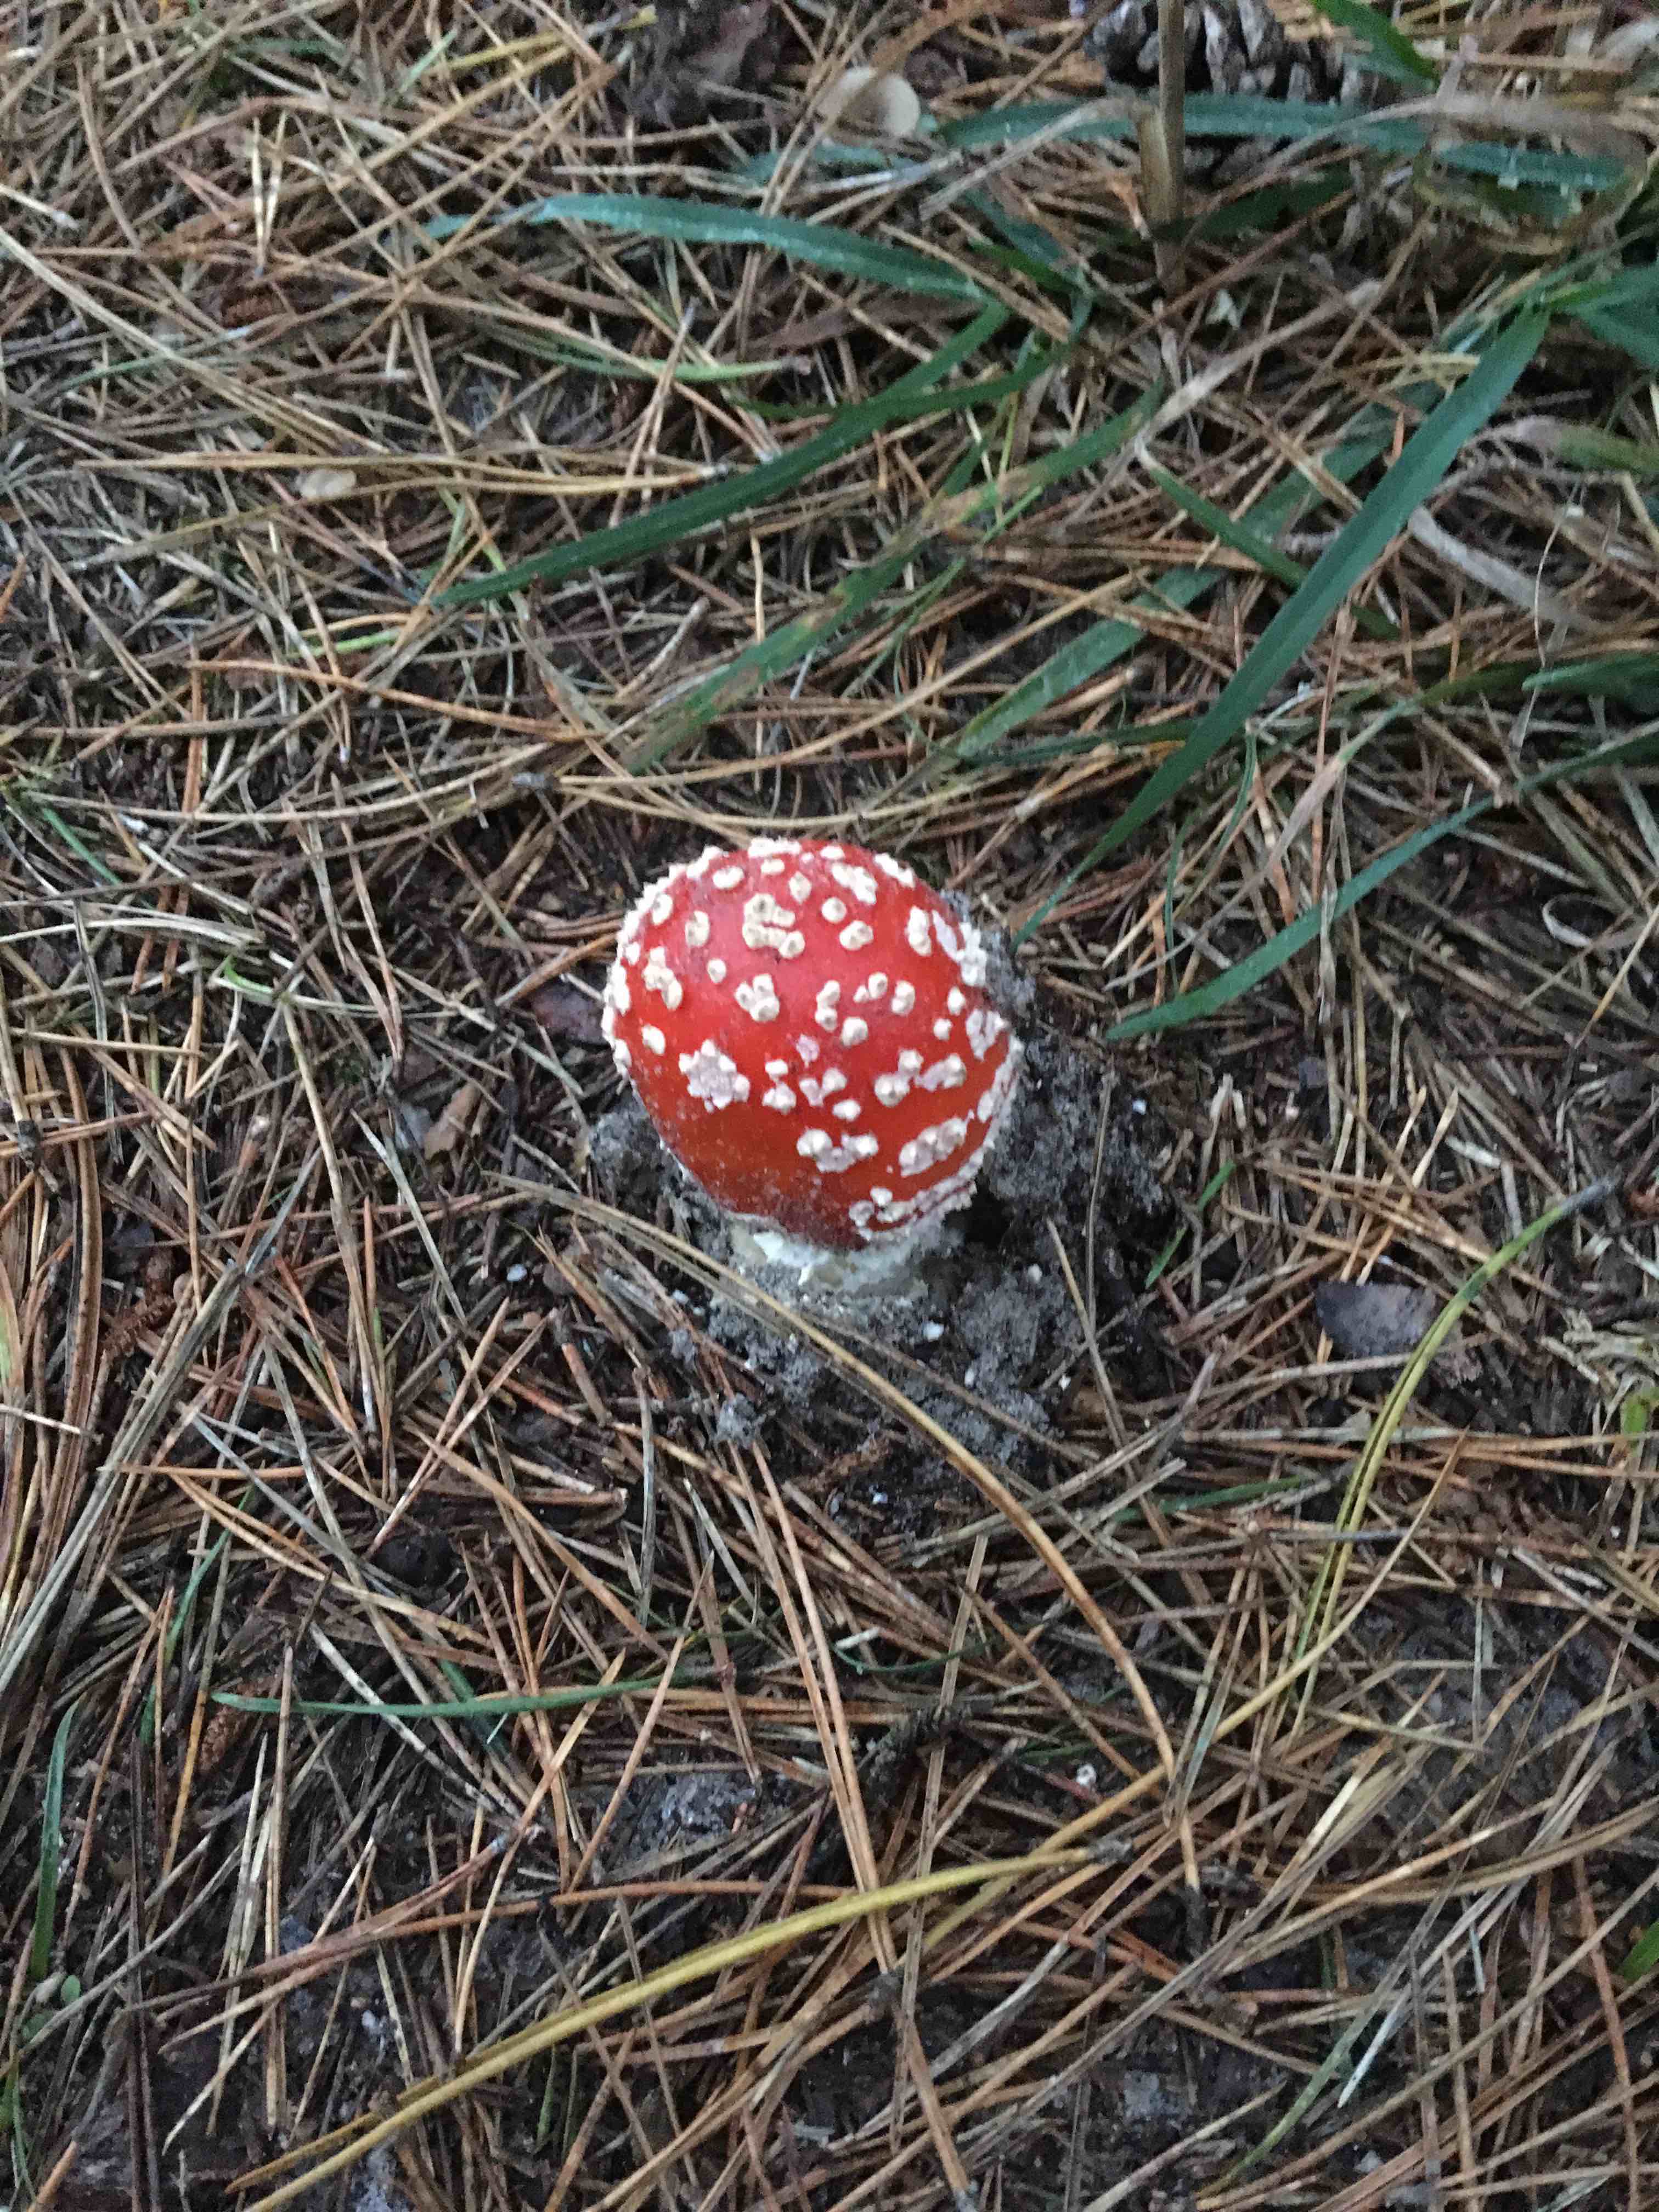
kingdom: Fungi
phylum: Basidiomycota
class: Agaricomycetes
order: Agaricales
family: Amanitaceae
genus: Amanita
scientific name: Amanita muscaria
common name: rød fluesvamp
